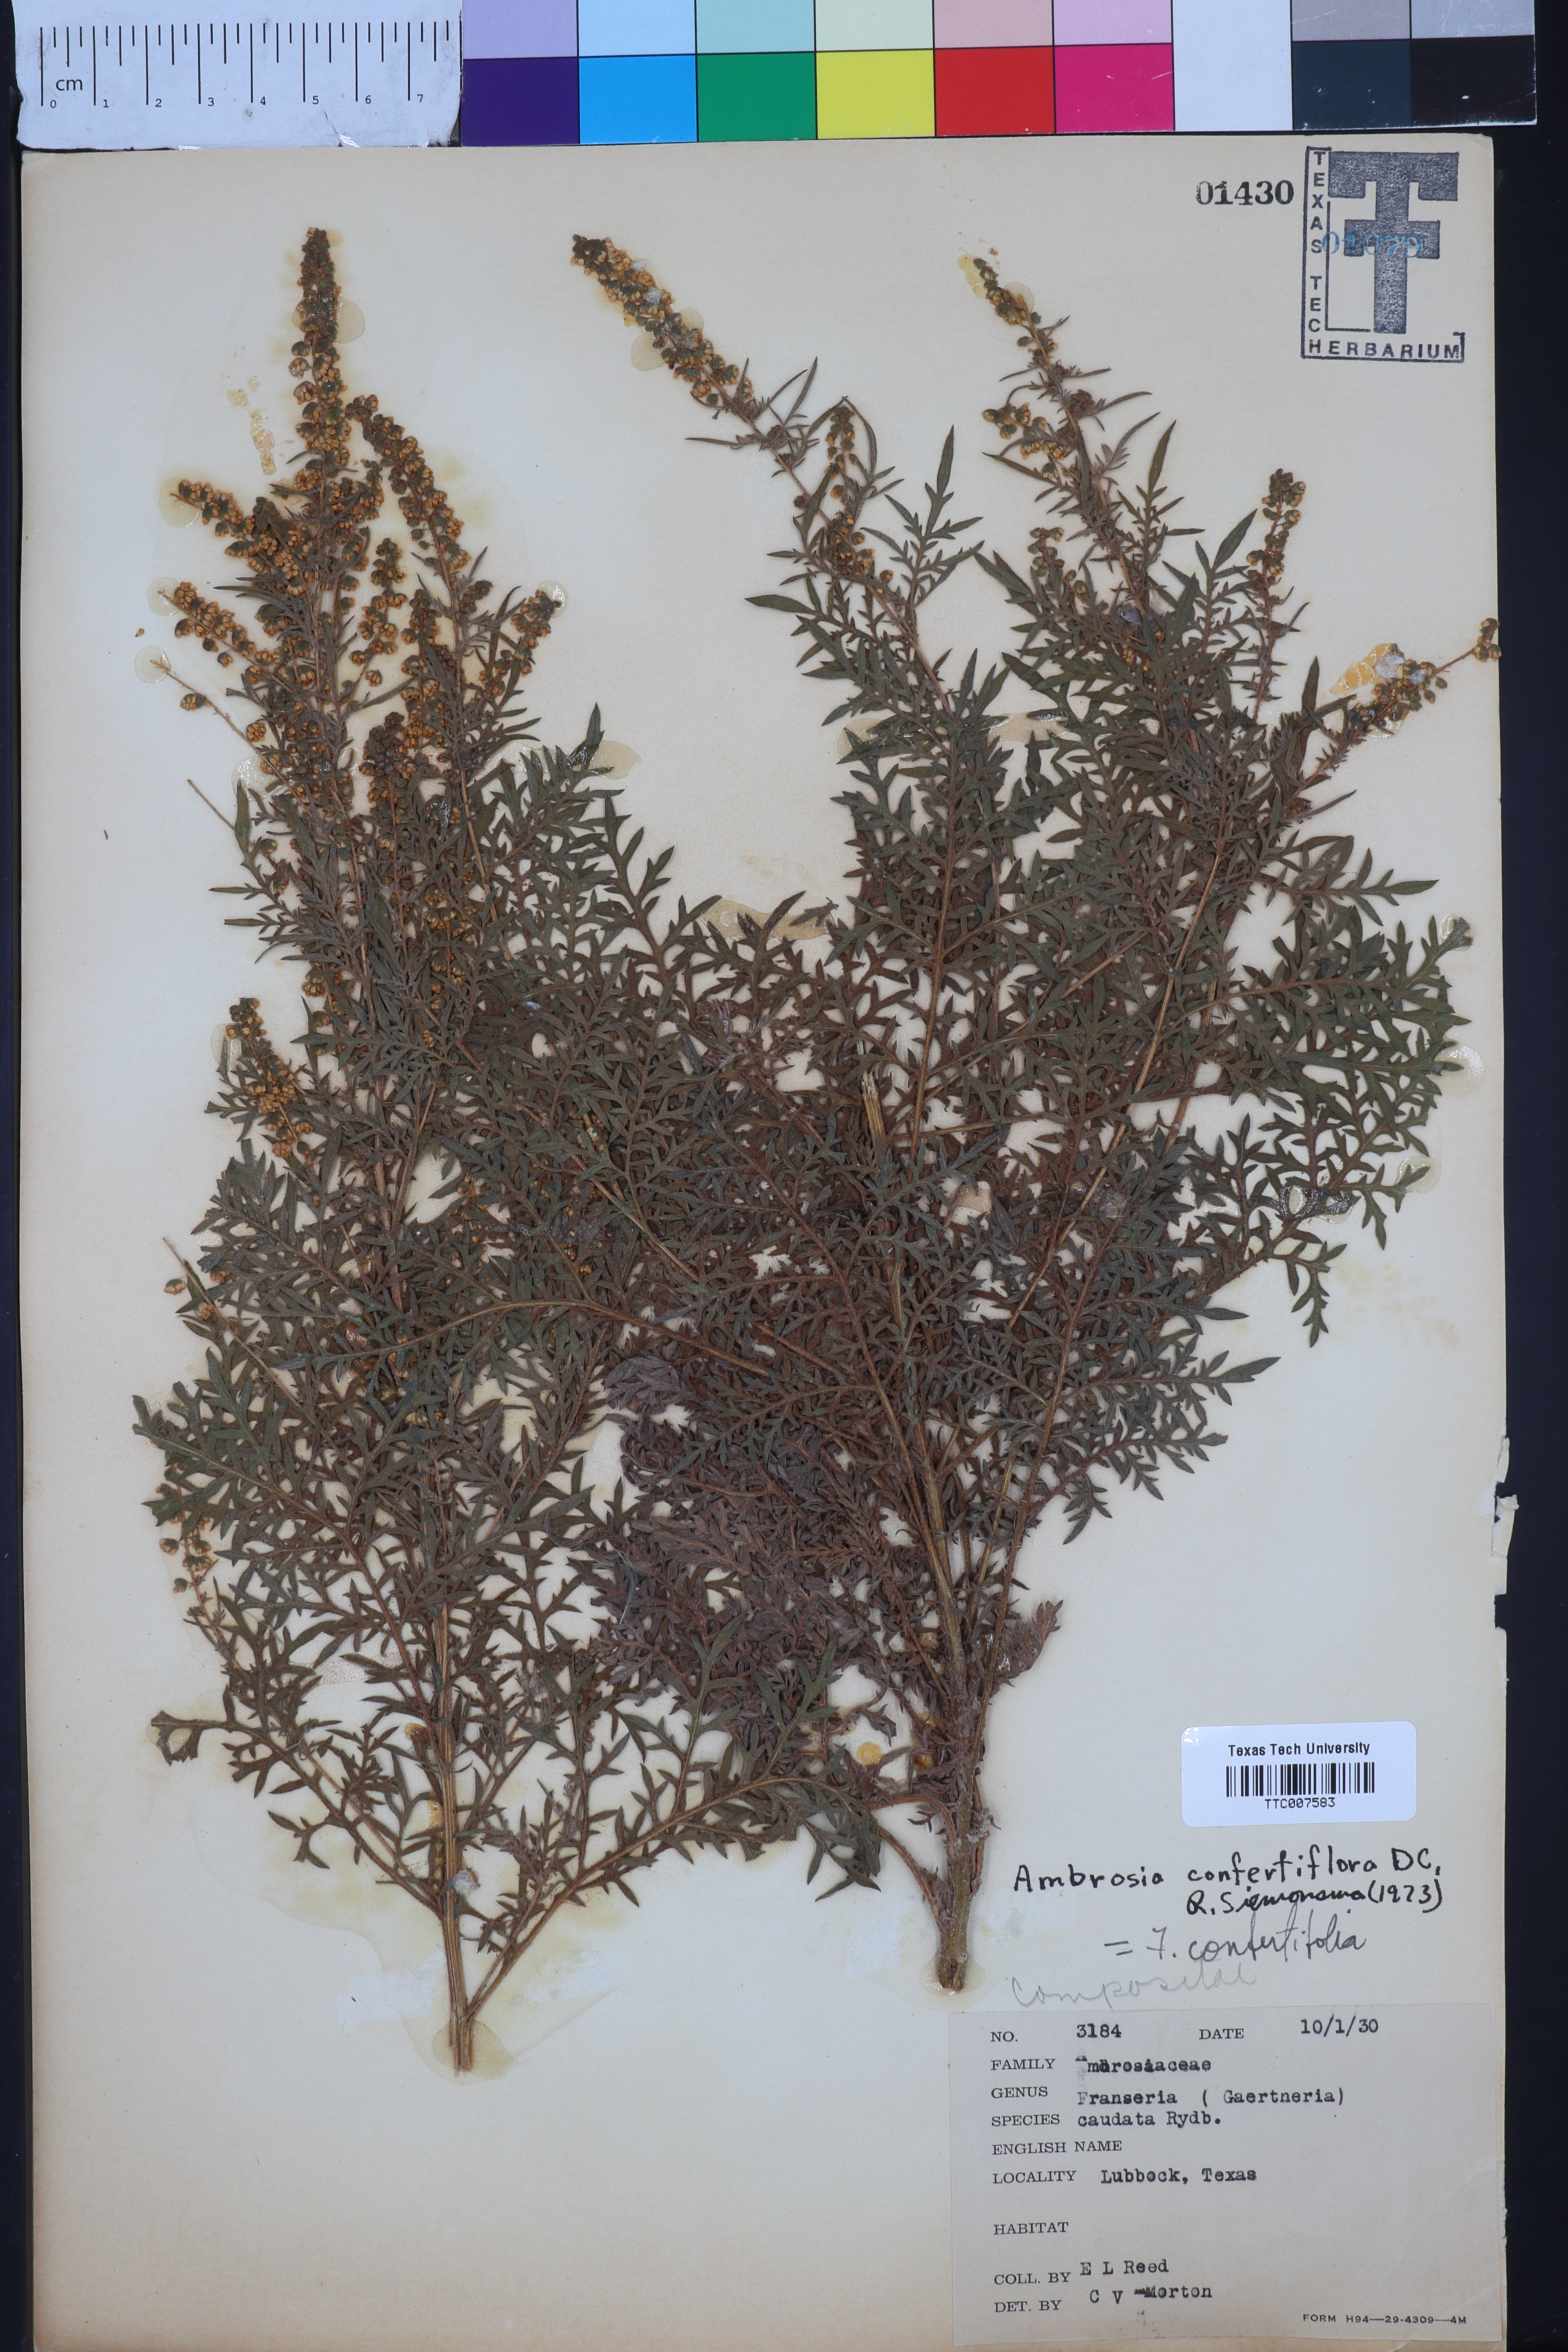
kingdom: Plantae
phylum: Tracheophyta
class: Magnoliopsida
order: Asterales
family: Asteraceae
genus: Ambrosia
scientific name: Ambrosia confertiflora
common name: Bur ragweed
